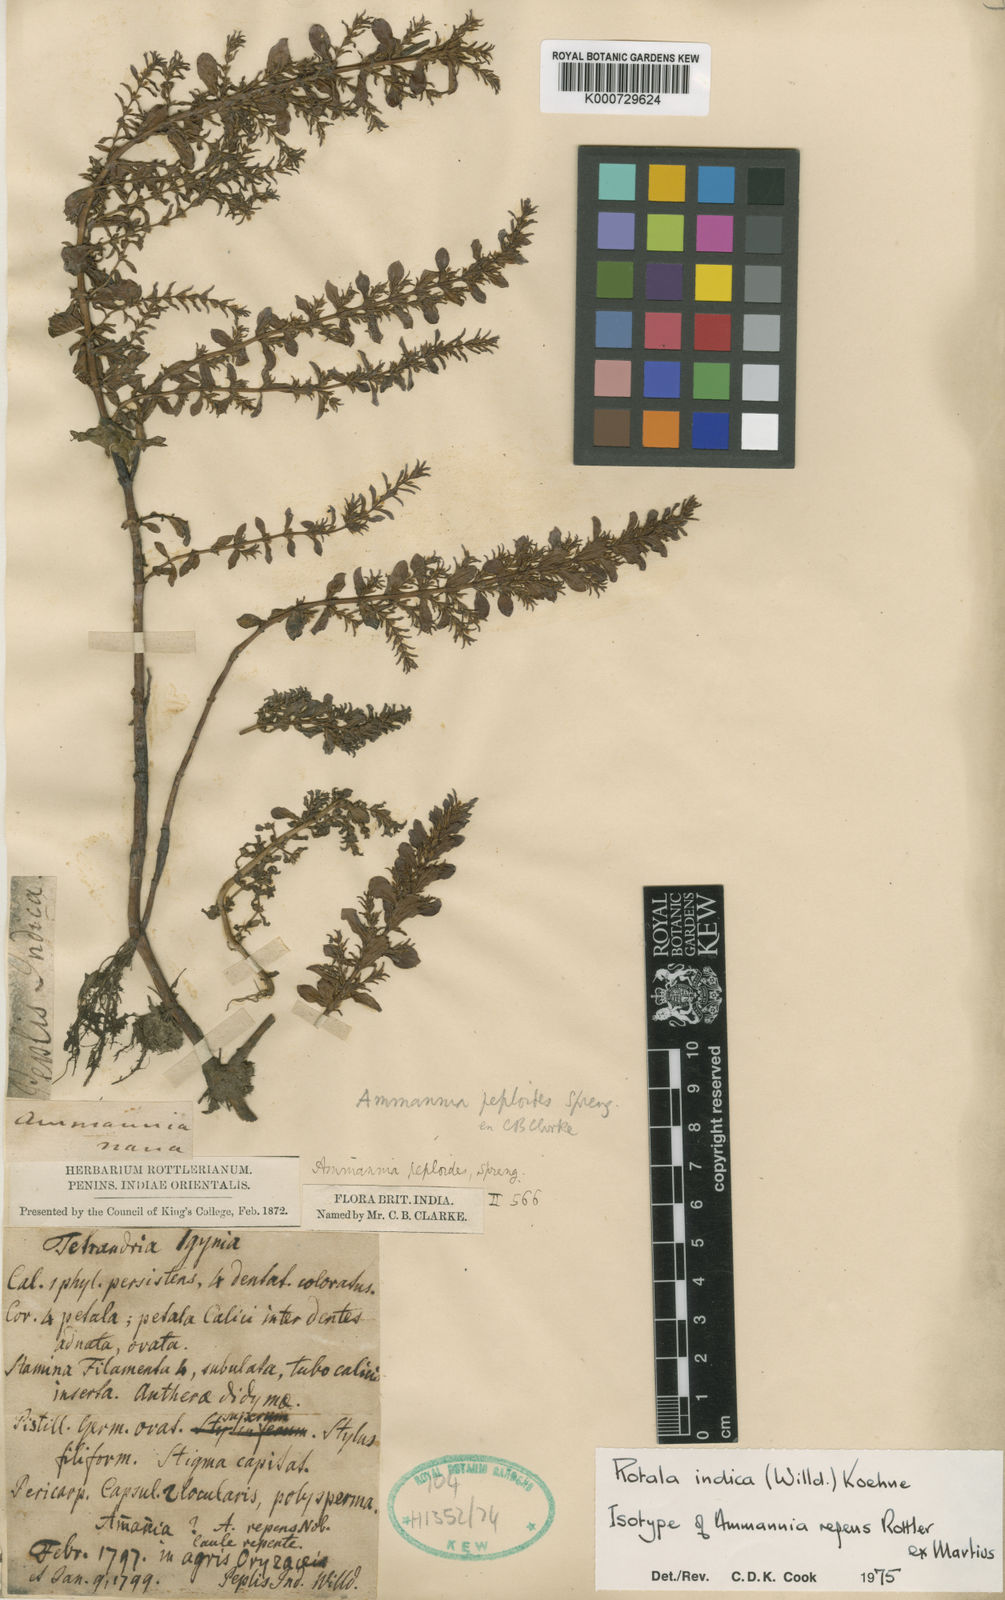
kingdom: Plantae
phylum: Tracheophyta
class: Magnoliopsida
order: Myrtales
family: Lythraceae
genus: Rotala
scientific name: Rotala indica
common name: Indian toothcup
